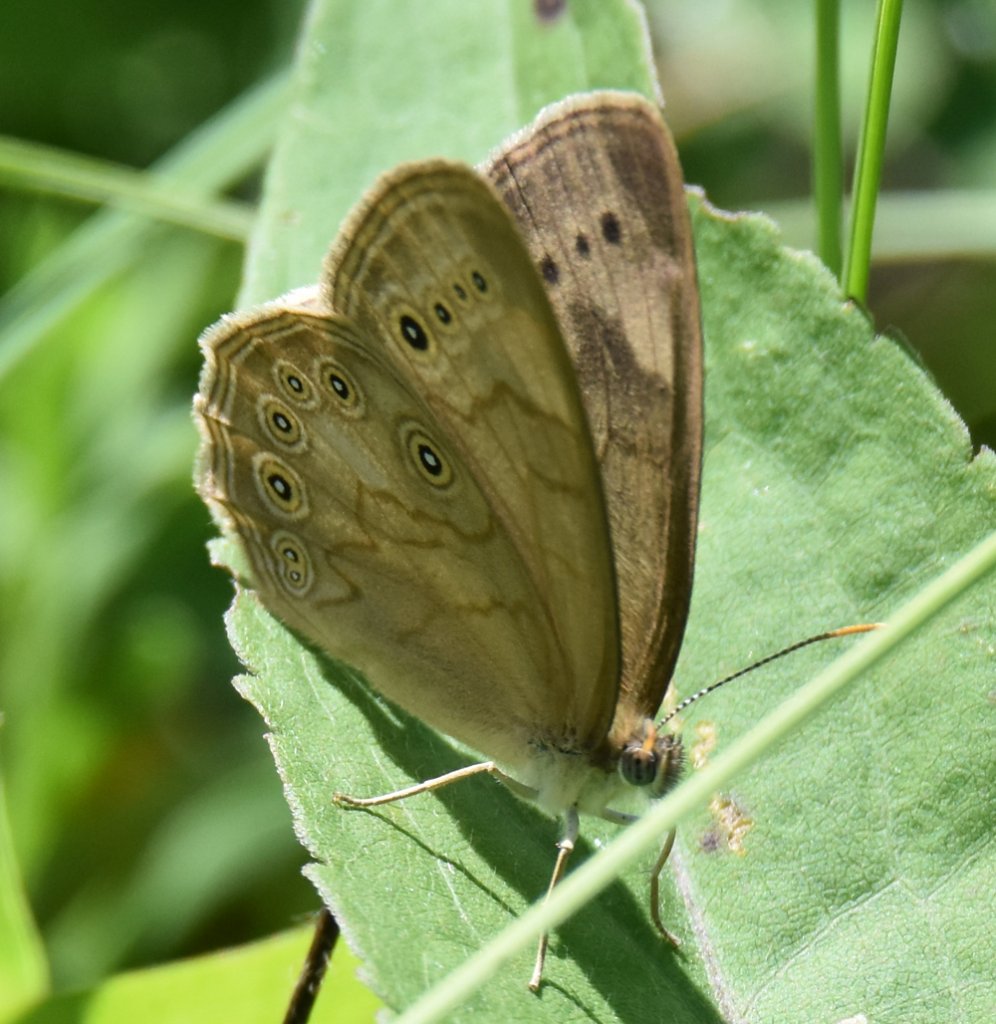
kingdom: Animalia
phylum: Arthropoda
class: Insecta
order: Lepidoptera
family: Nymphalidae
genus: Lethe
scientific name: Lethe eurydice
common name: Eyed Brown
